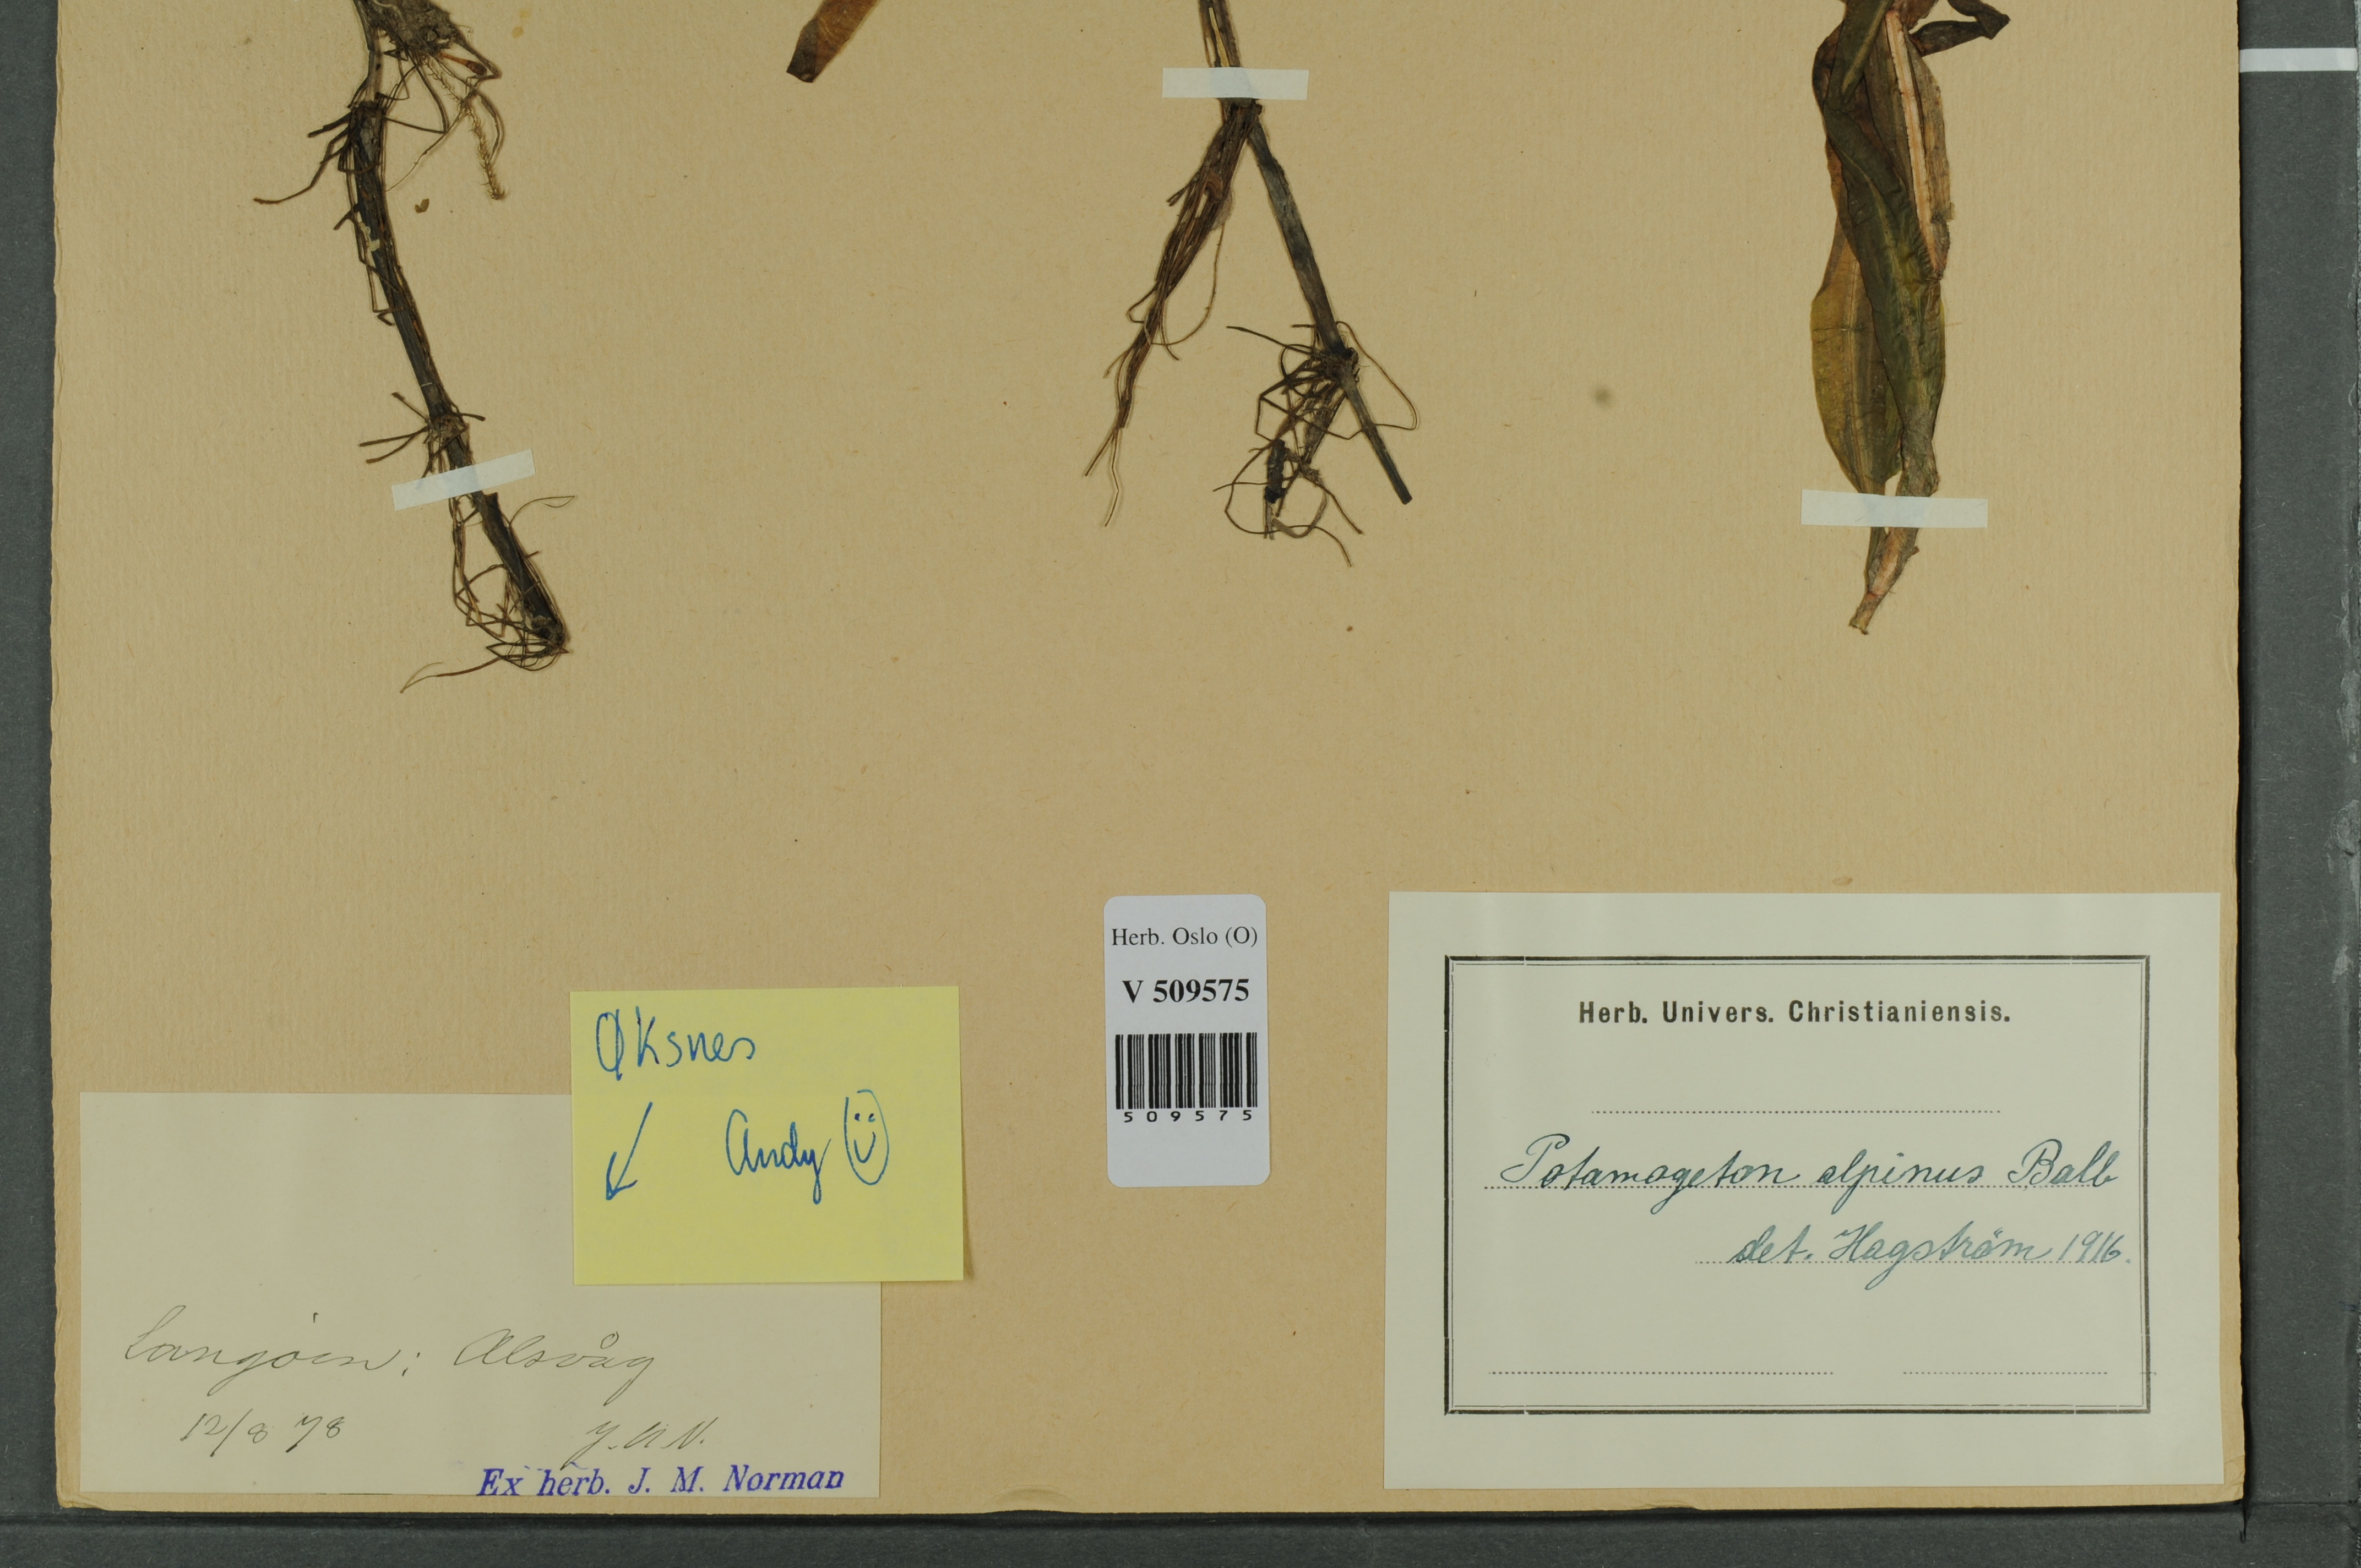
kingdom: Plantae
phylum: Tracheophyta
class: Liliopsida
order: Alismatales
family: Potamogetonaceae
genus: Potamogeton
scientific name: Potamogeton alpinus
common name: Red pondweed
